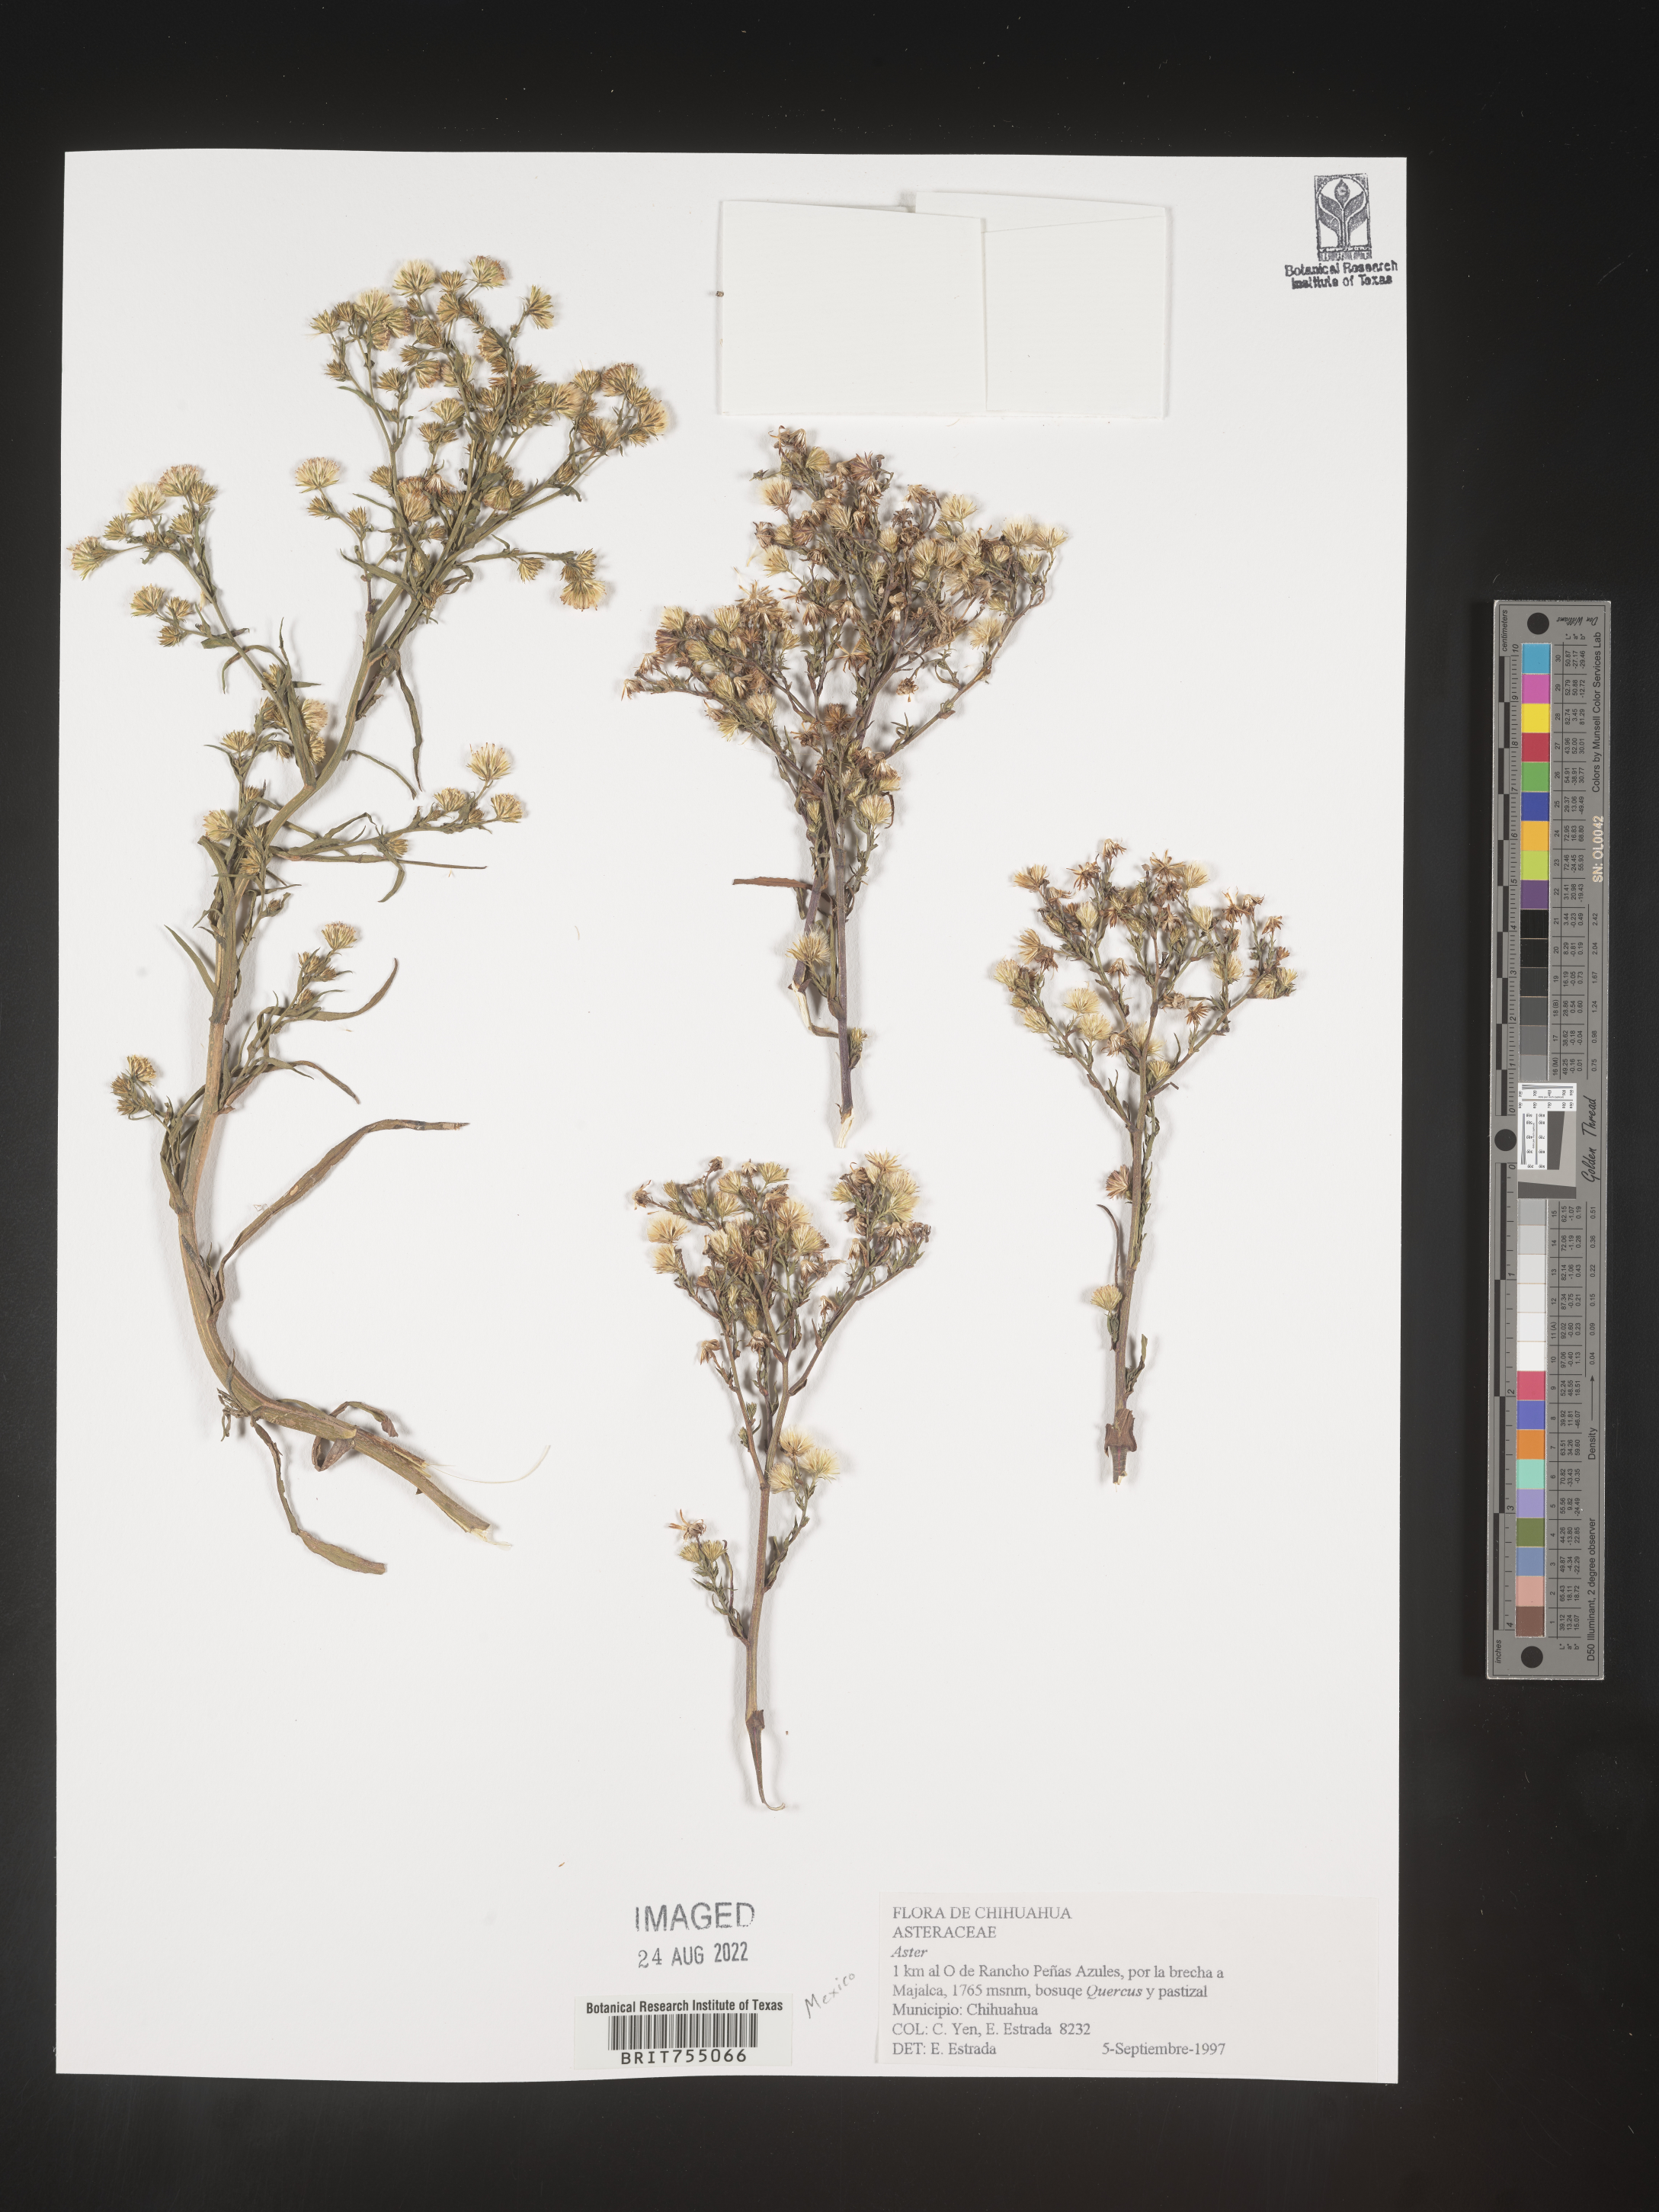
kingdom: Plantae
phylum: Tracheophyta
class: Magnoliopsida
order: Asterales
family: Asteraceae
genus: Symphyotrichum
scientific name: Symphyotrichum expansum
